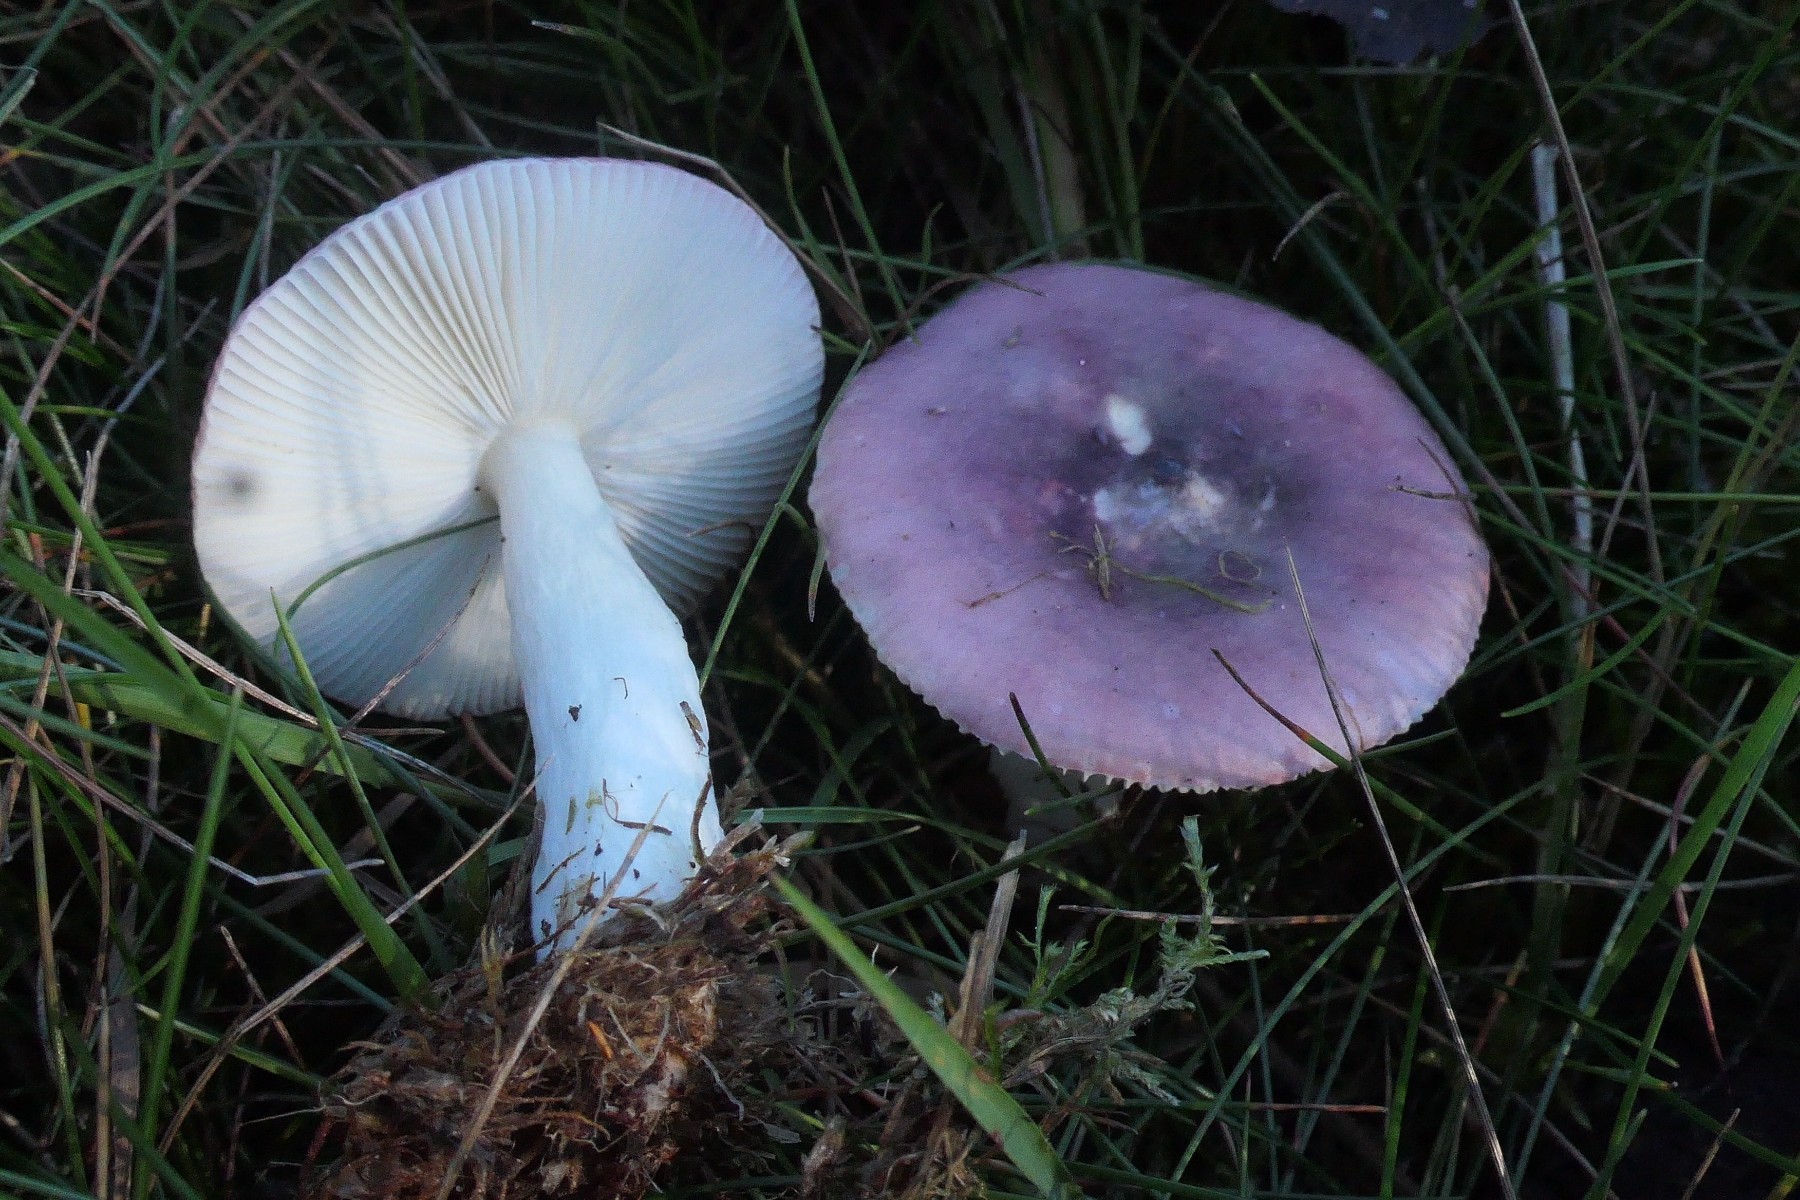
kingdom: Fungi
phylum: Basidiomycota
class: Agaricomycetes
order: Russulales
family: Russulaceae
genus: Russula
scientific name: Russula pelargonia
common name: pelargonie-skørhat
